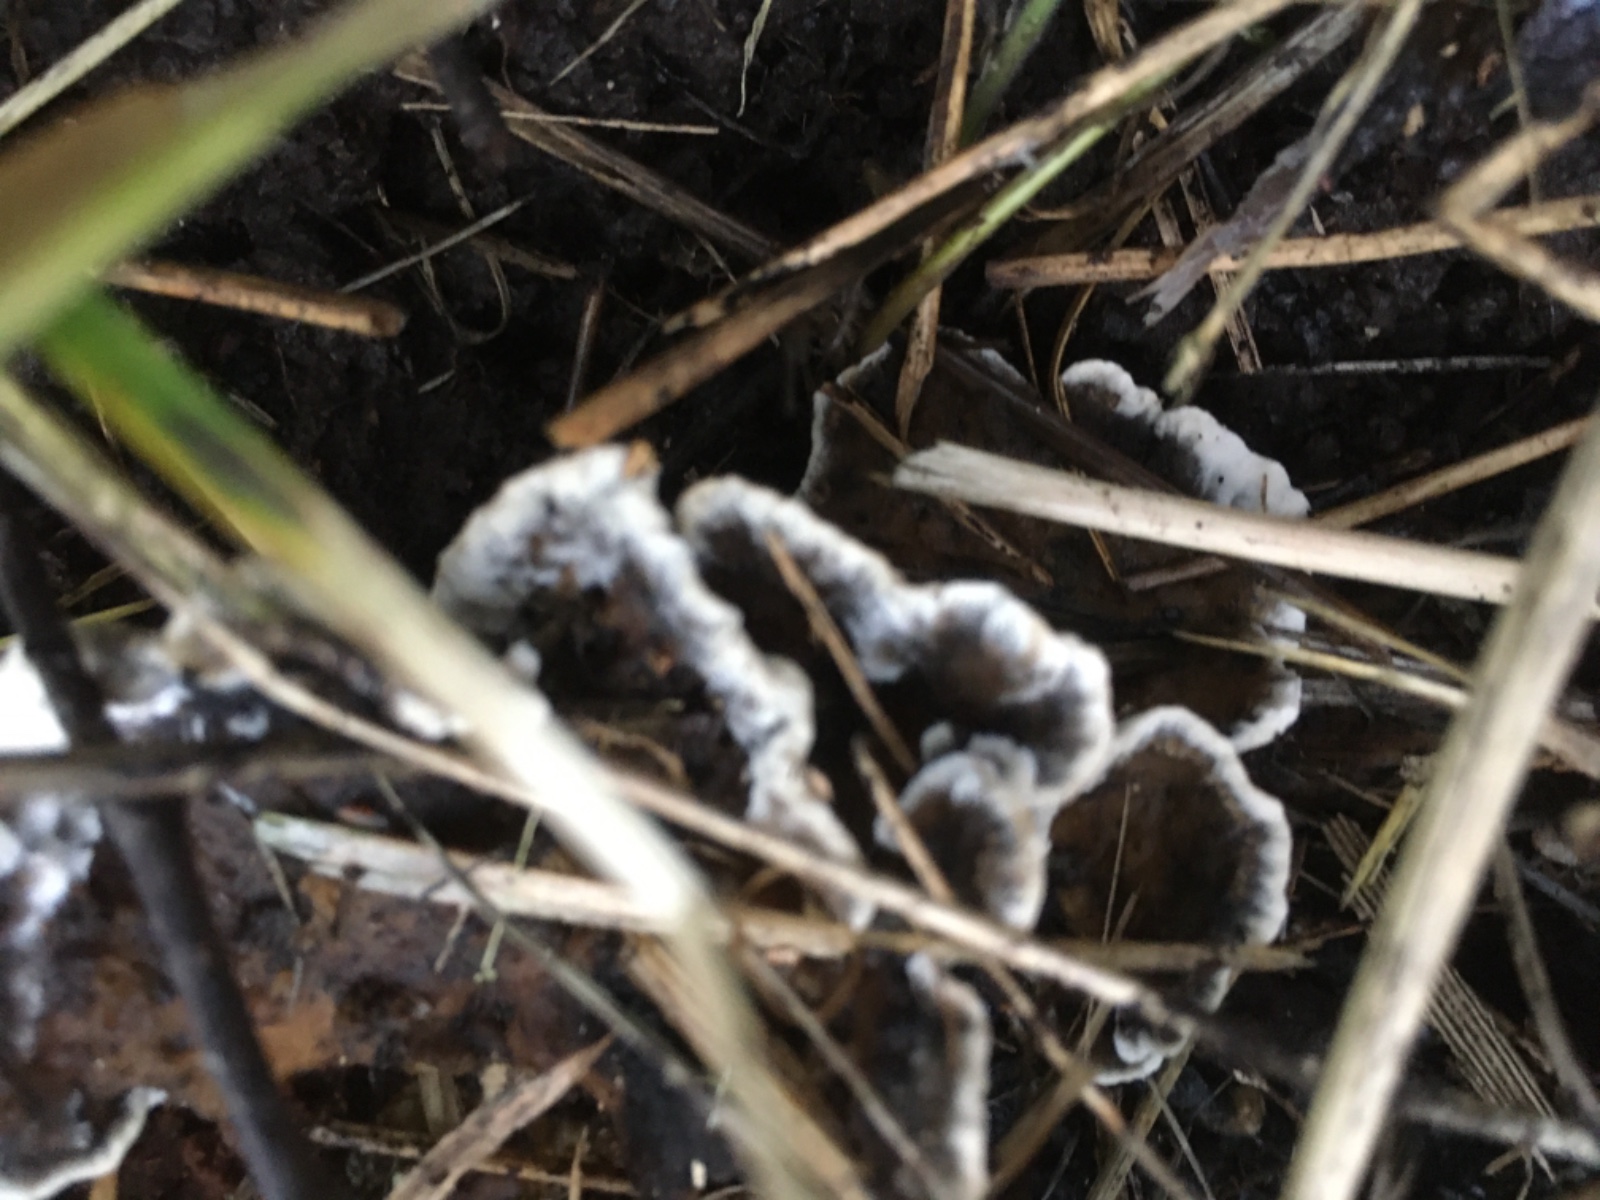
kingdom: Fungi
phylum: Basidiomycota
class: Agaricomycetes
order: Polyporales
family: Phanerochaetaceae
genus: Bjerkandera
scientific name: Bjerkandera adusta
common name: sveden sodporesvamp
